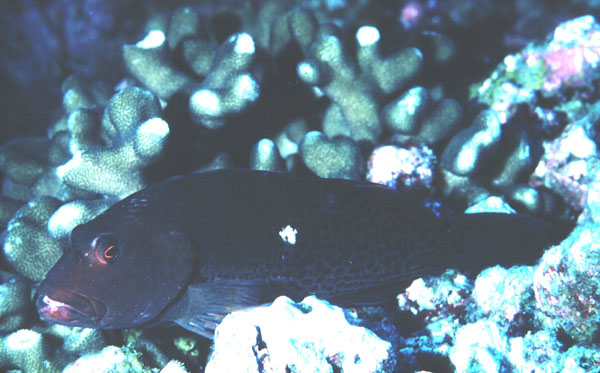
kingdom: Animalia
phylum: Chordata
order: Perciformes
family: Cirrhitidae
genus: Paracirrhites
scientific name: Paracirrhites hemistictus
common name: Halfspotted hawkfish
